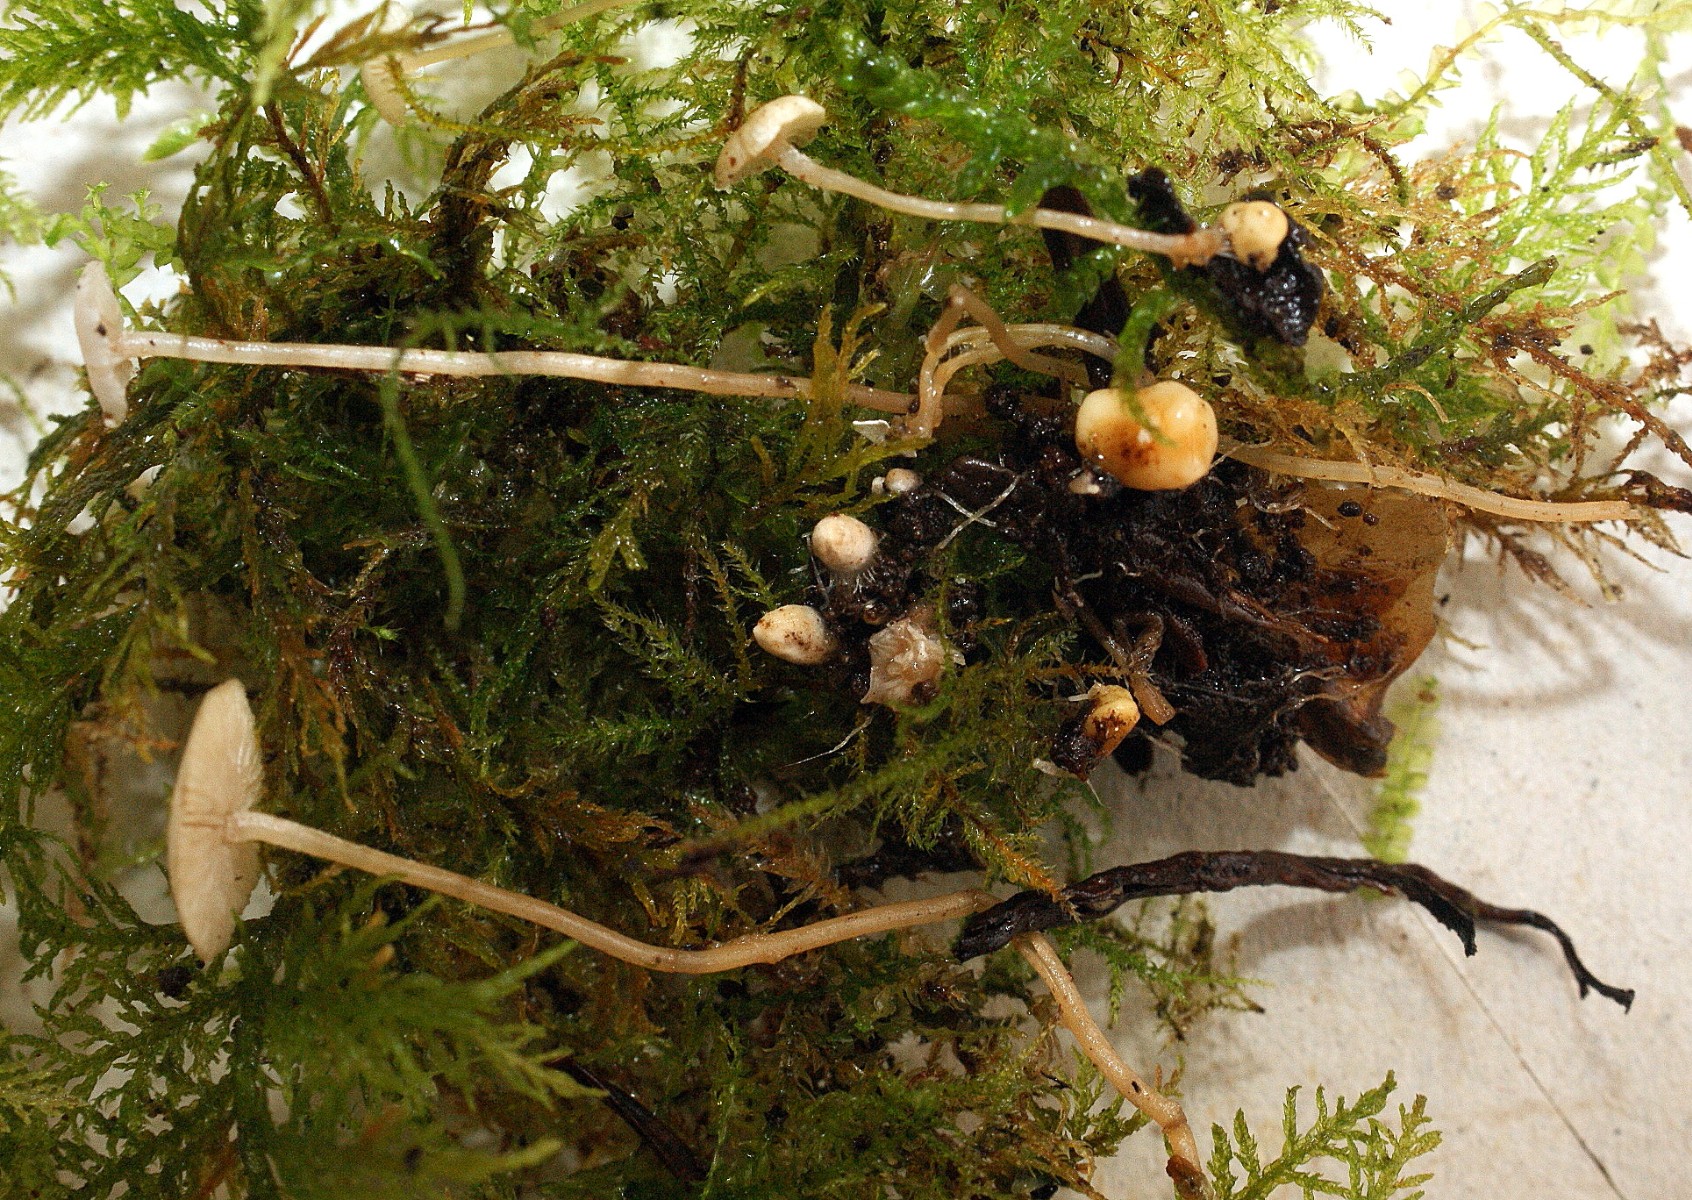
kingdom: Fungi
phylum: Basidiomycota
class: Agaricomycetes
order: Agaricales
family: Tricholomataceae
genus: Collybia
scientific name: Collybia cookei
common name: gulknoldet lighat
